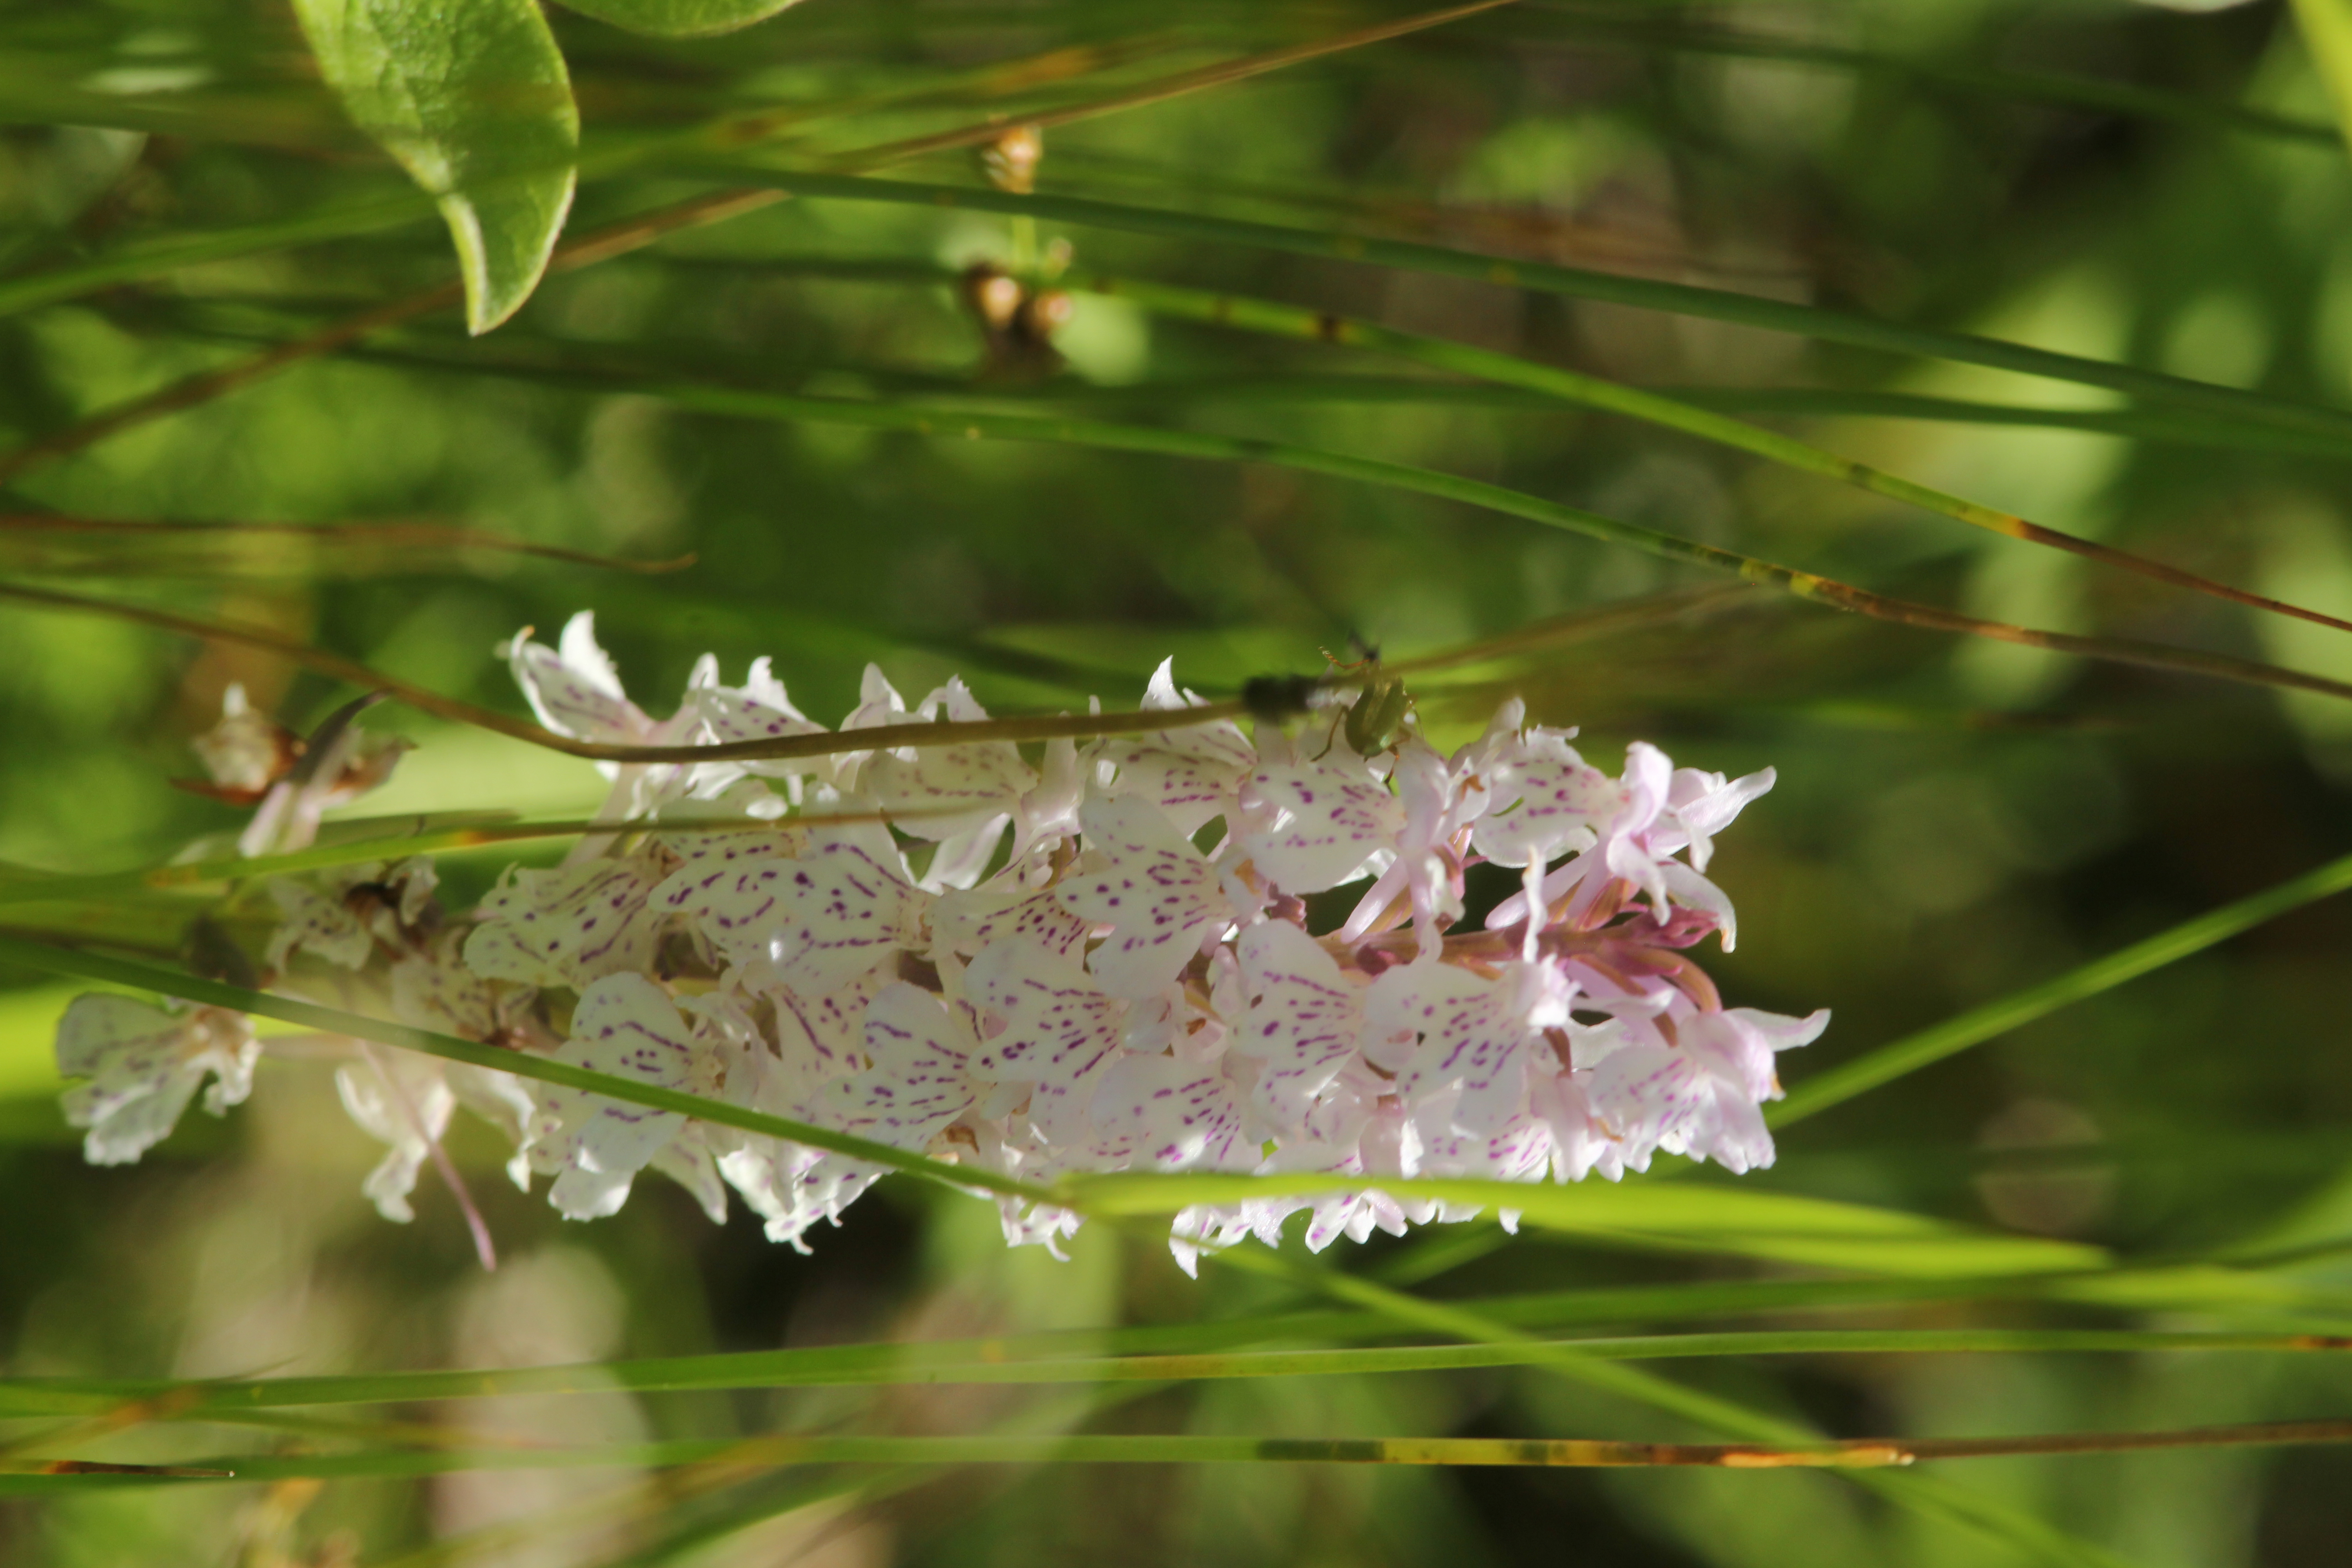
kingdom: Plantae
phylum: Tracheophyta
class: Liliopsida
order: Asparagales
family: Orchidaceae
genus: Dactylorhiza
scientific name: Dactylorhiza maculata
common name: Heath spotted-orchid
